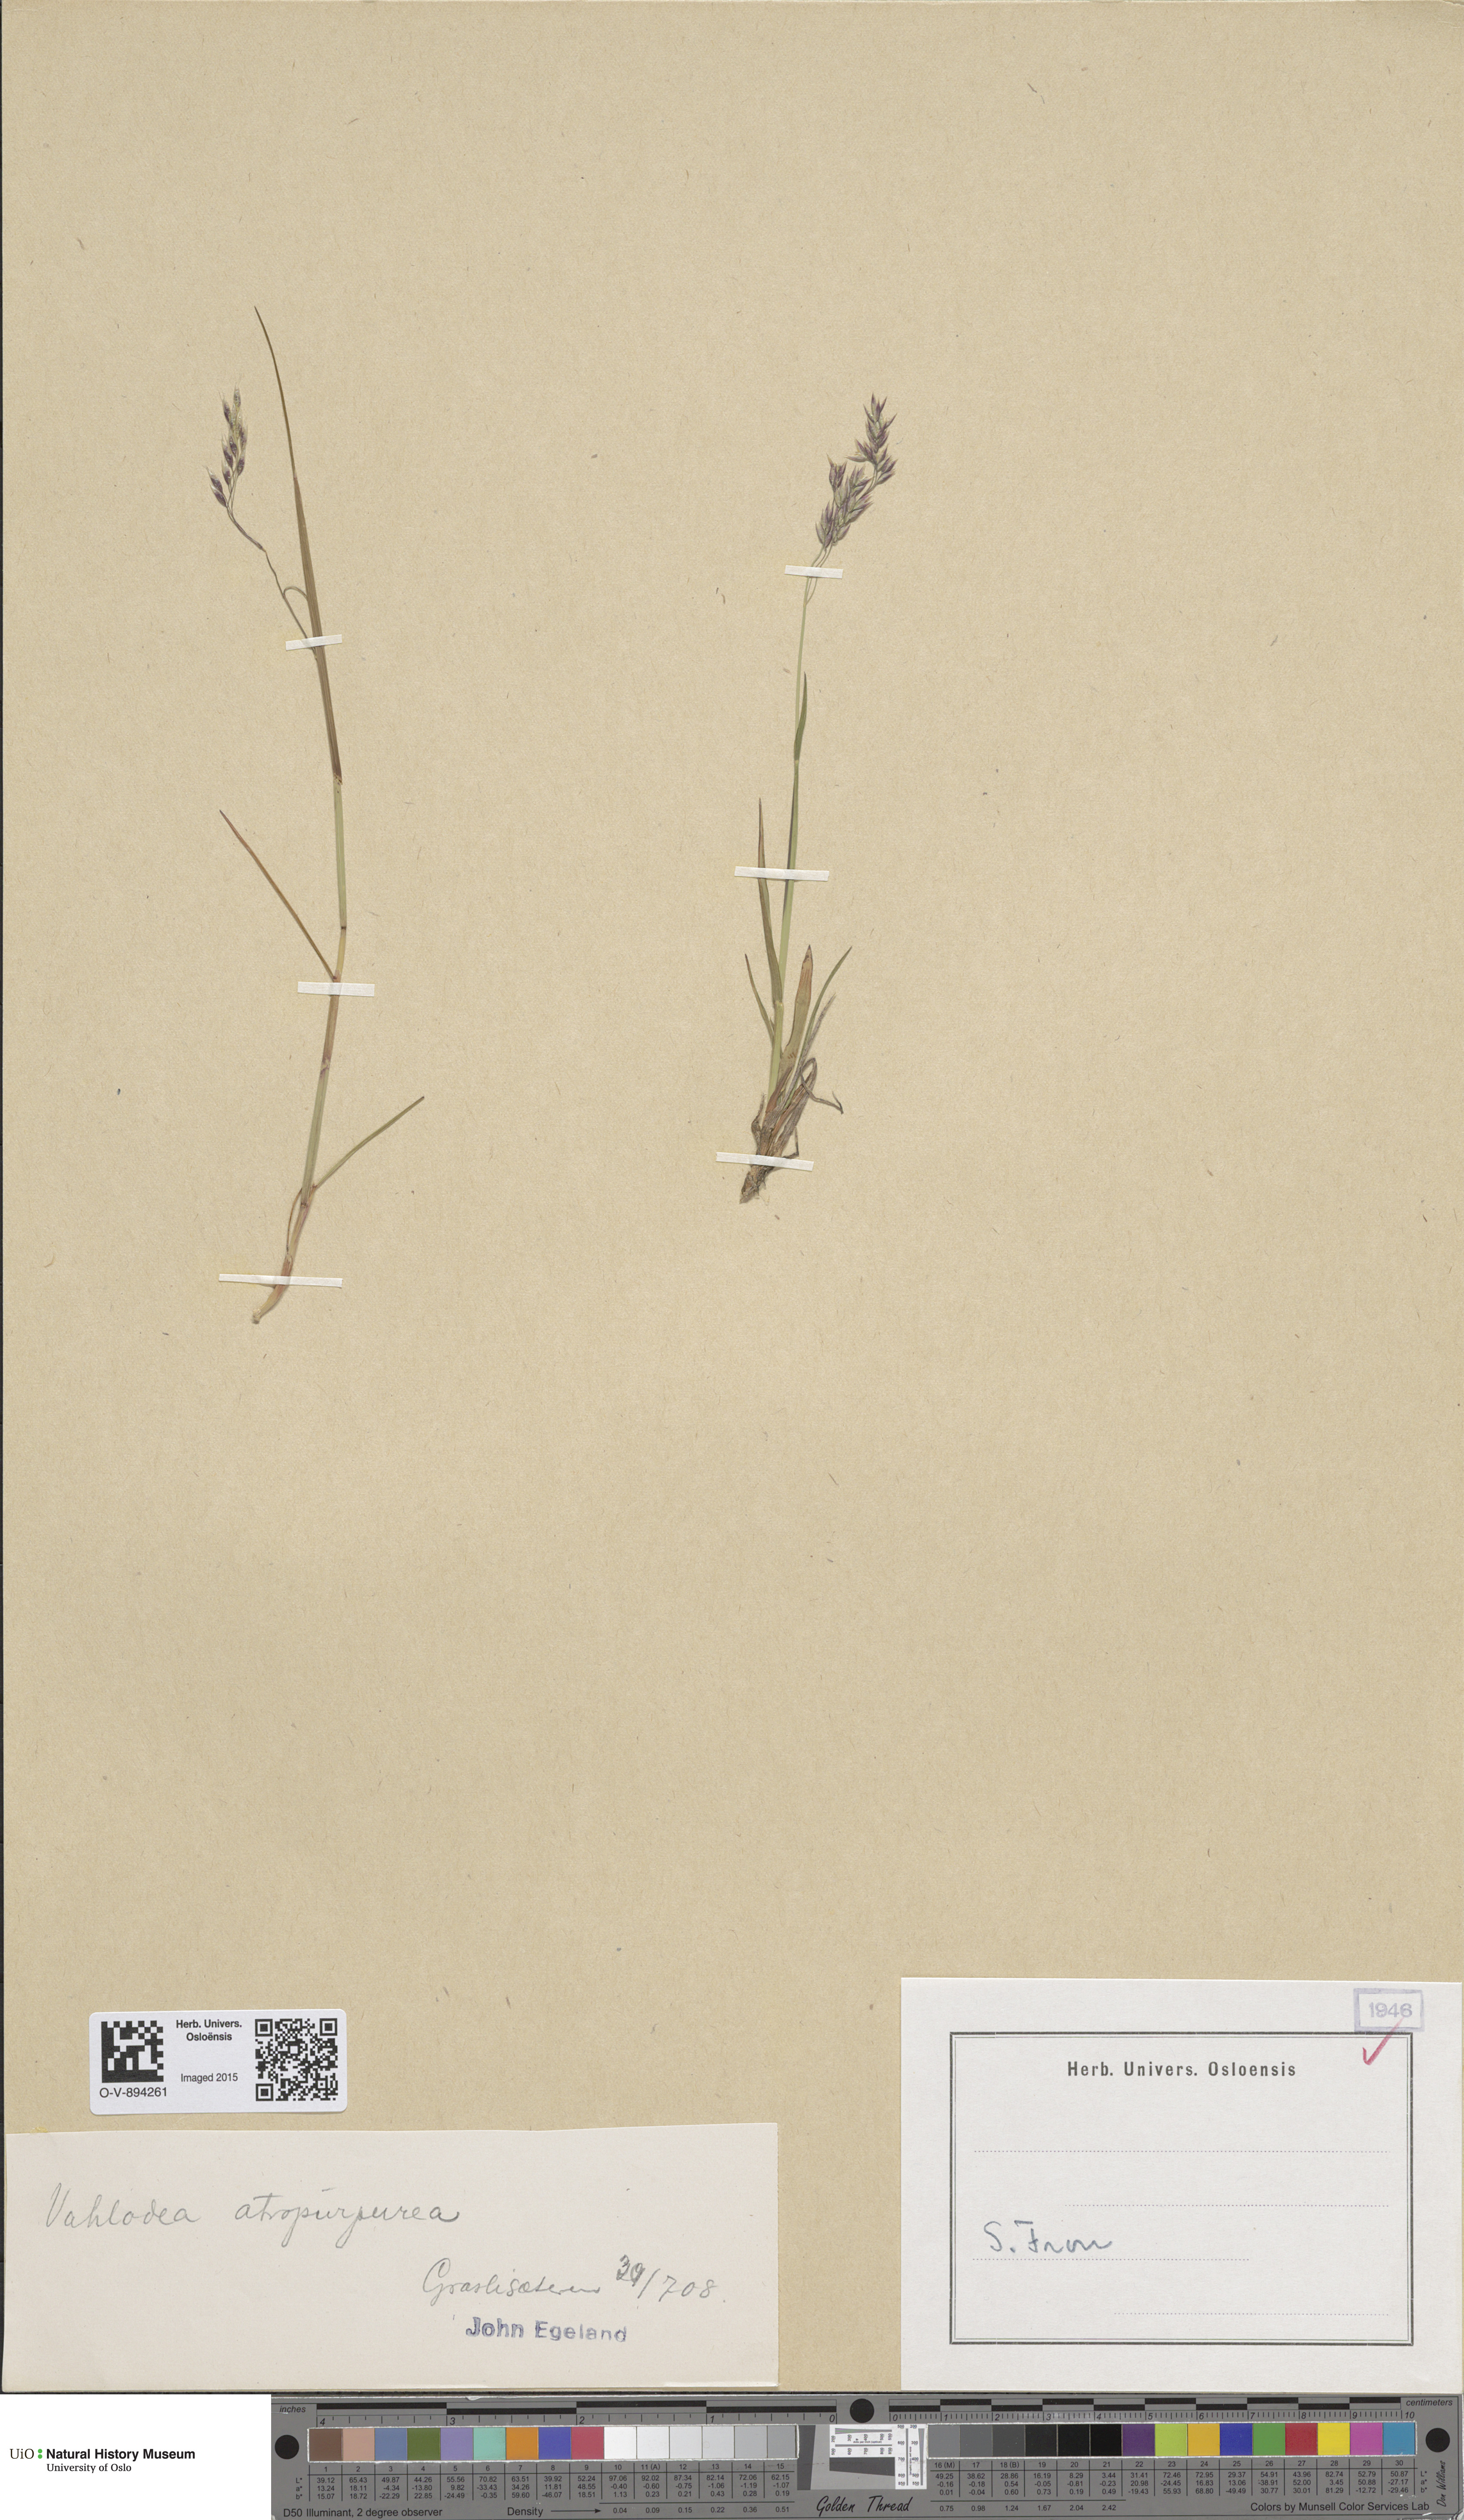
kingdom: Plantae
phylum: Tracheophyta
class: Liliopsida
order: Poales
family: Poaceae
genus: Vahlodea
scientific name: Vahlodea atropurpurea
